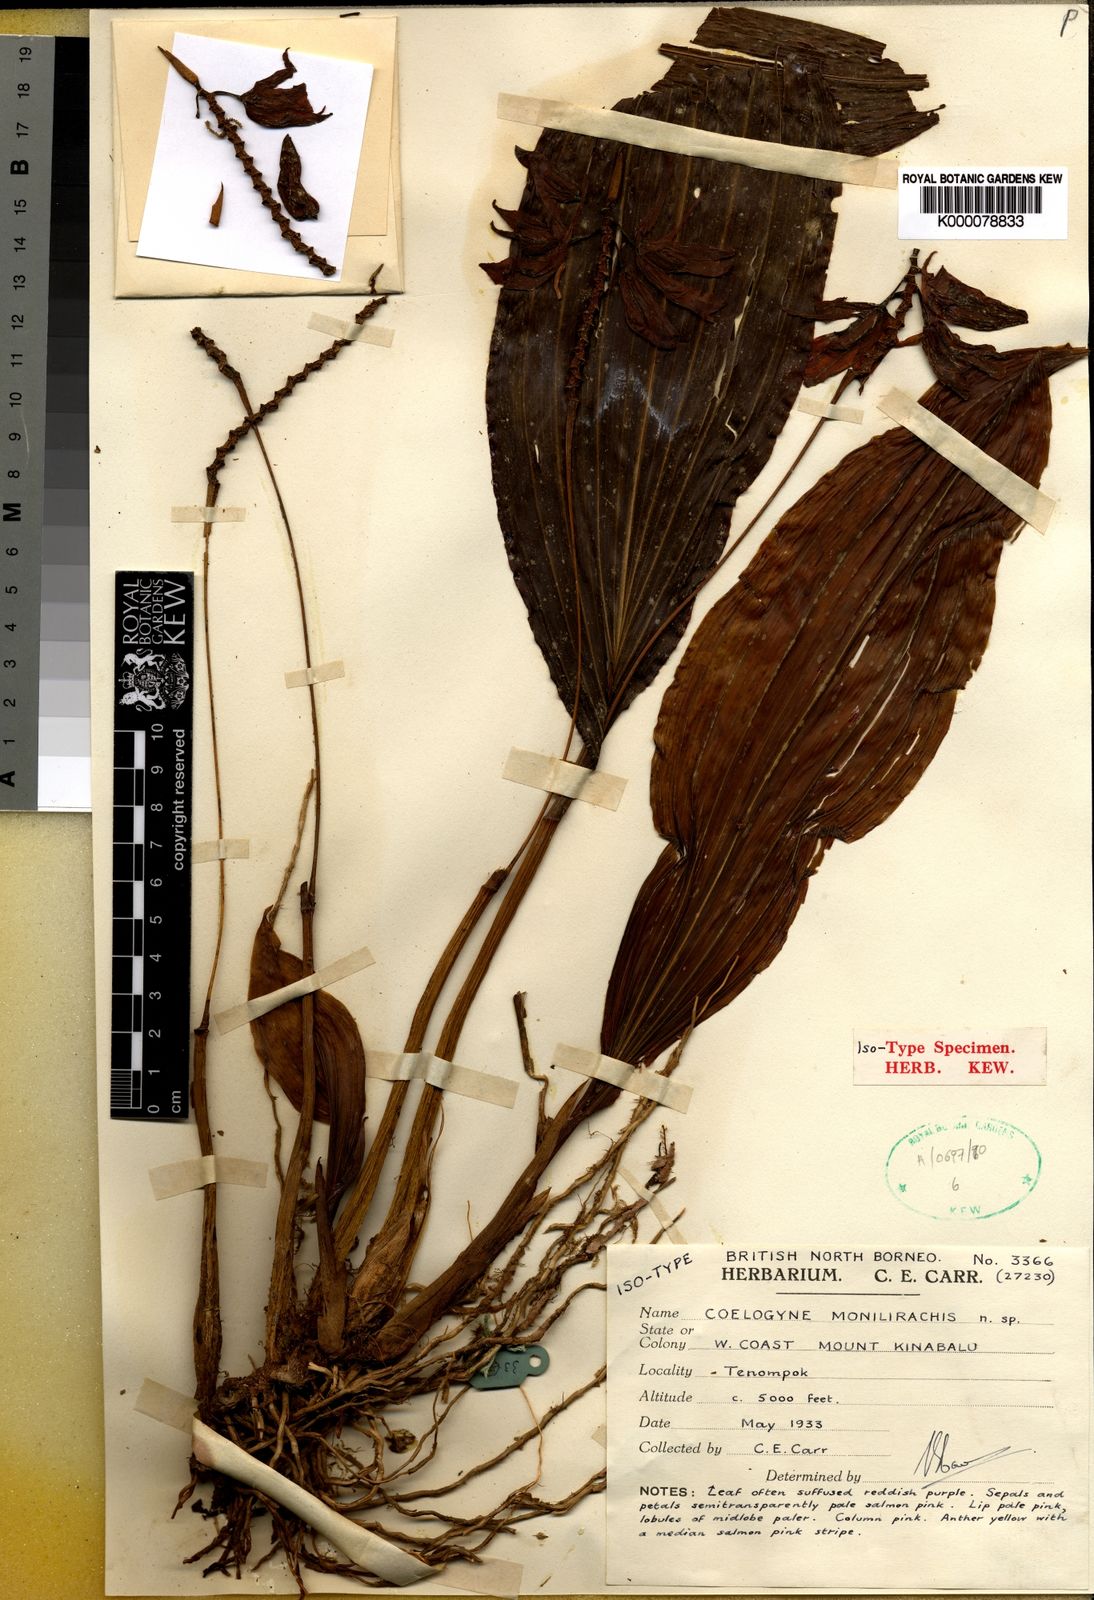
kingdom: Plantae
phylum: Tracheophyta
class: Liliopsida
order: Asparagales
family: Orchidaceae
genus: Coelogyne
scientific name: Coelogyne monilirachis
